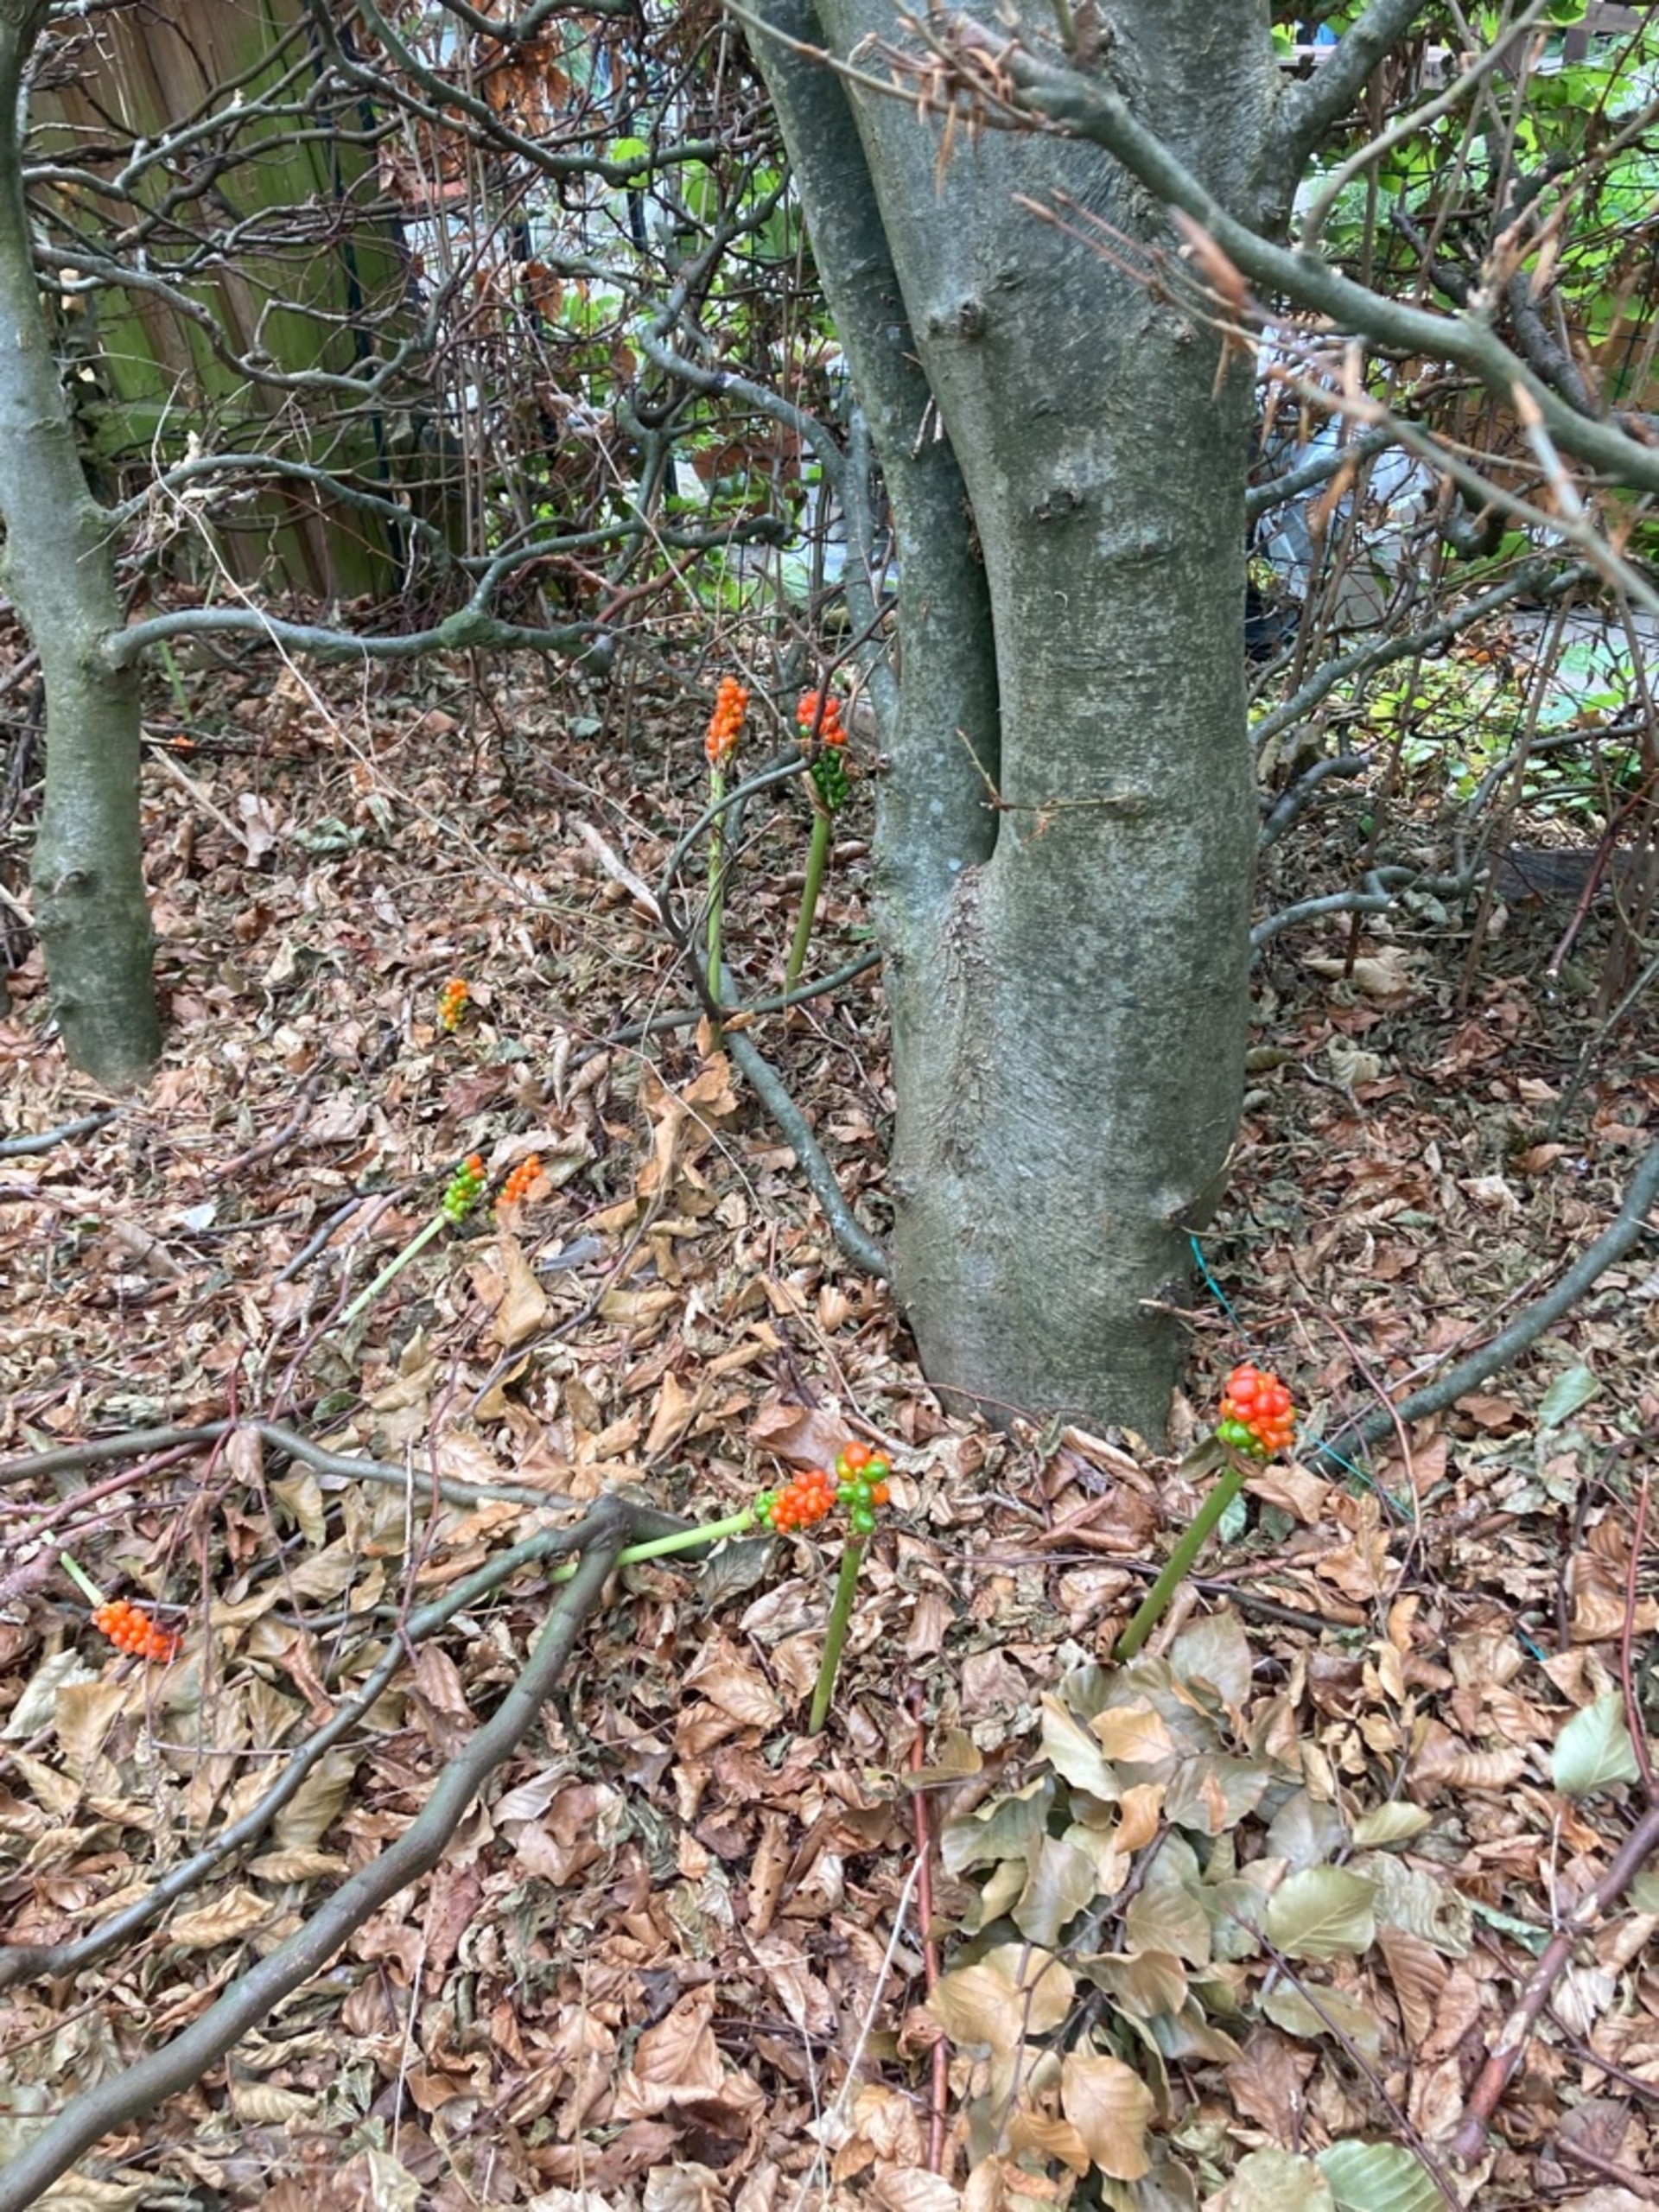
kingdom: Plantae
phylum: Tracheophyta
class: Liliopsida
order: Alismatales
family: Araceae
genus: Arum
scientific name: Arum cylindraceum
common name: Dansk arum
